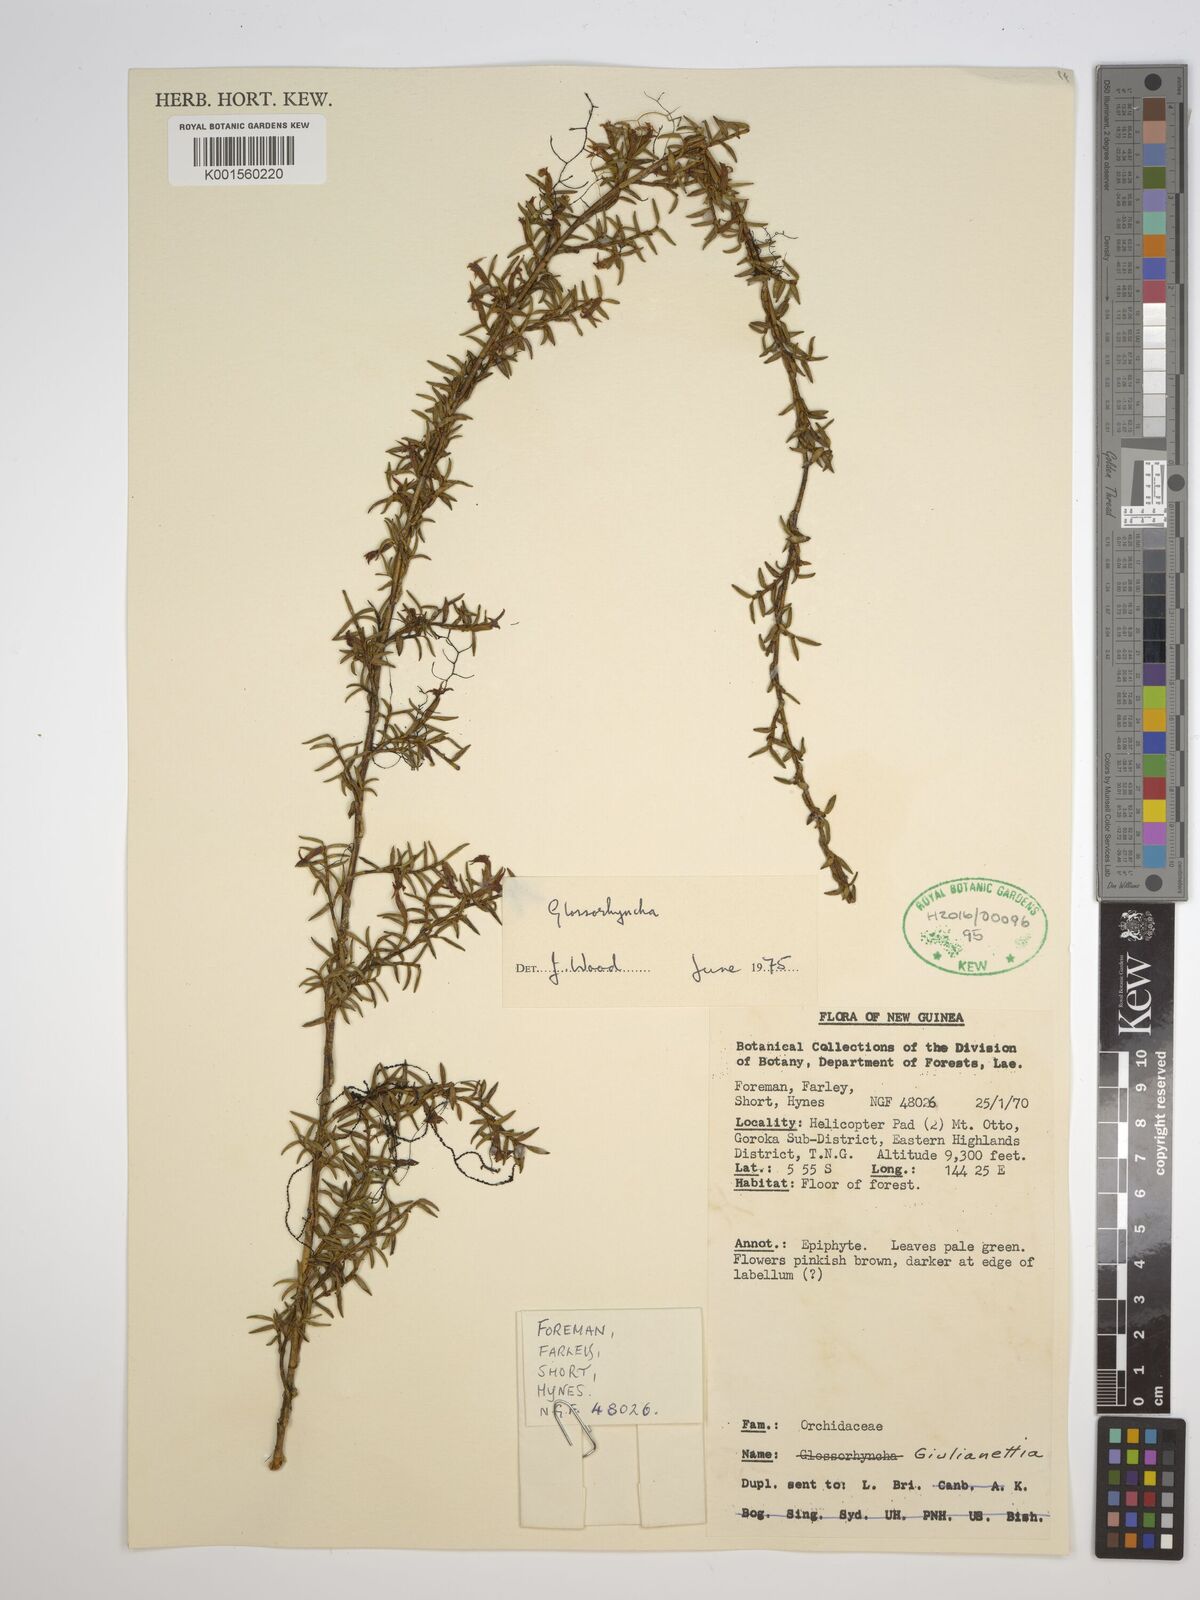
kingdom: Plantae
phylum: Tracheophyta
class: Liliopsida
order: Asparagales
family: Orchidaceae
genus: Glomera
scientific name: Glomera
